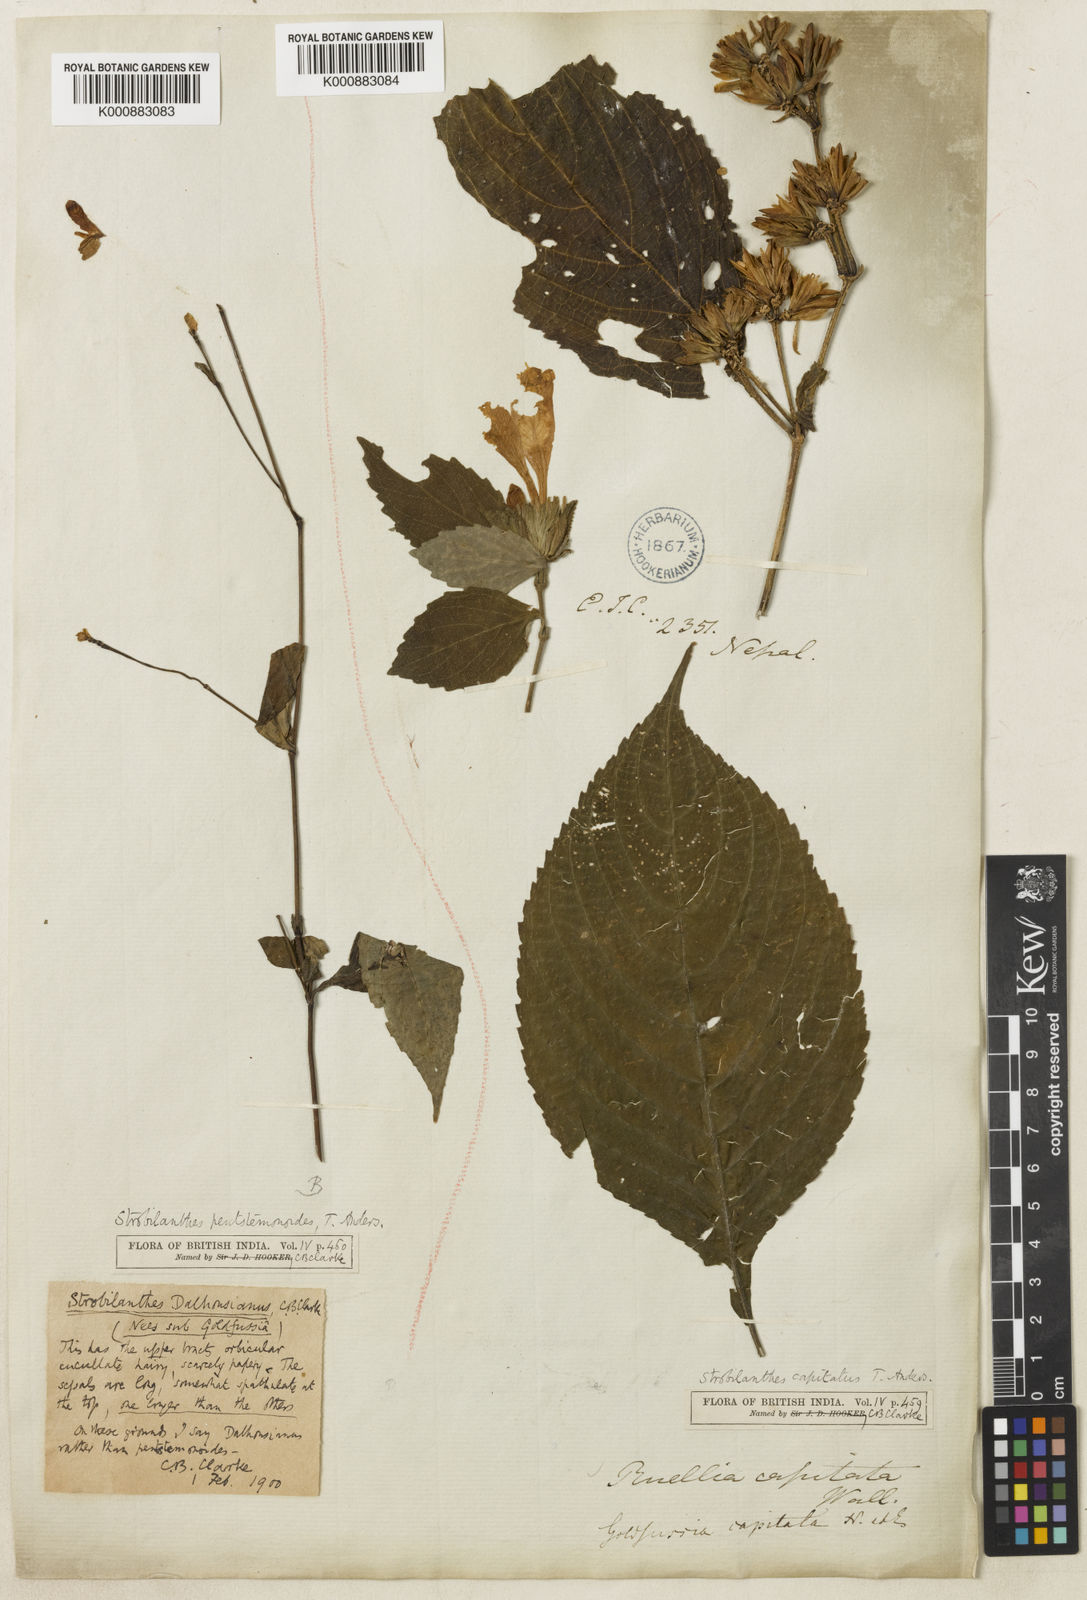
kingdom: Plantae
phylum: Tracheophyta
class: Magnoliopsida
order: Lamiales
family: Acanthaceae
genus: Strobilanthes
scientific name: Strobilanthes capitata
